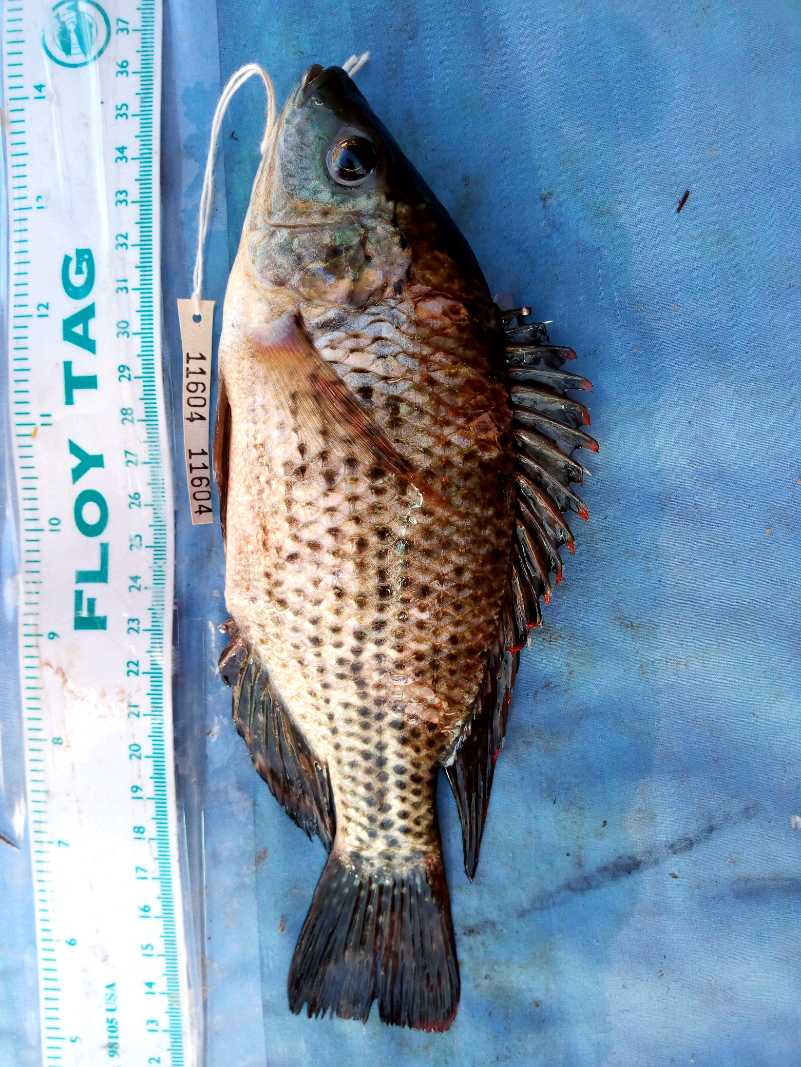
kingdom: Animalia
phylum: Chordata
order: Perciformes
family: Cichlidae
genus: Oreochromis
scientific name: Oreochromis jipe
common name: Jipe tilapia
